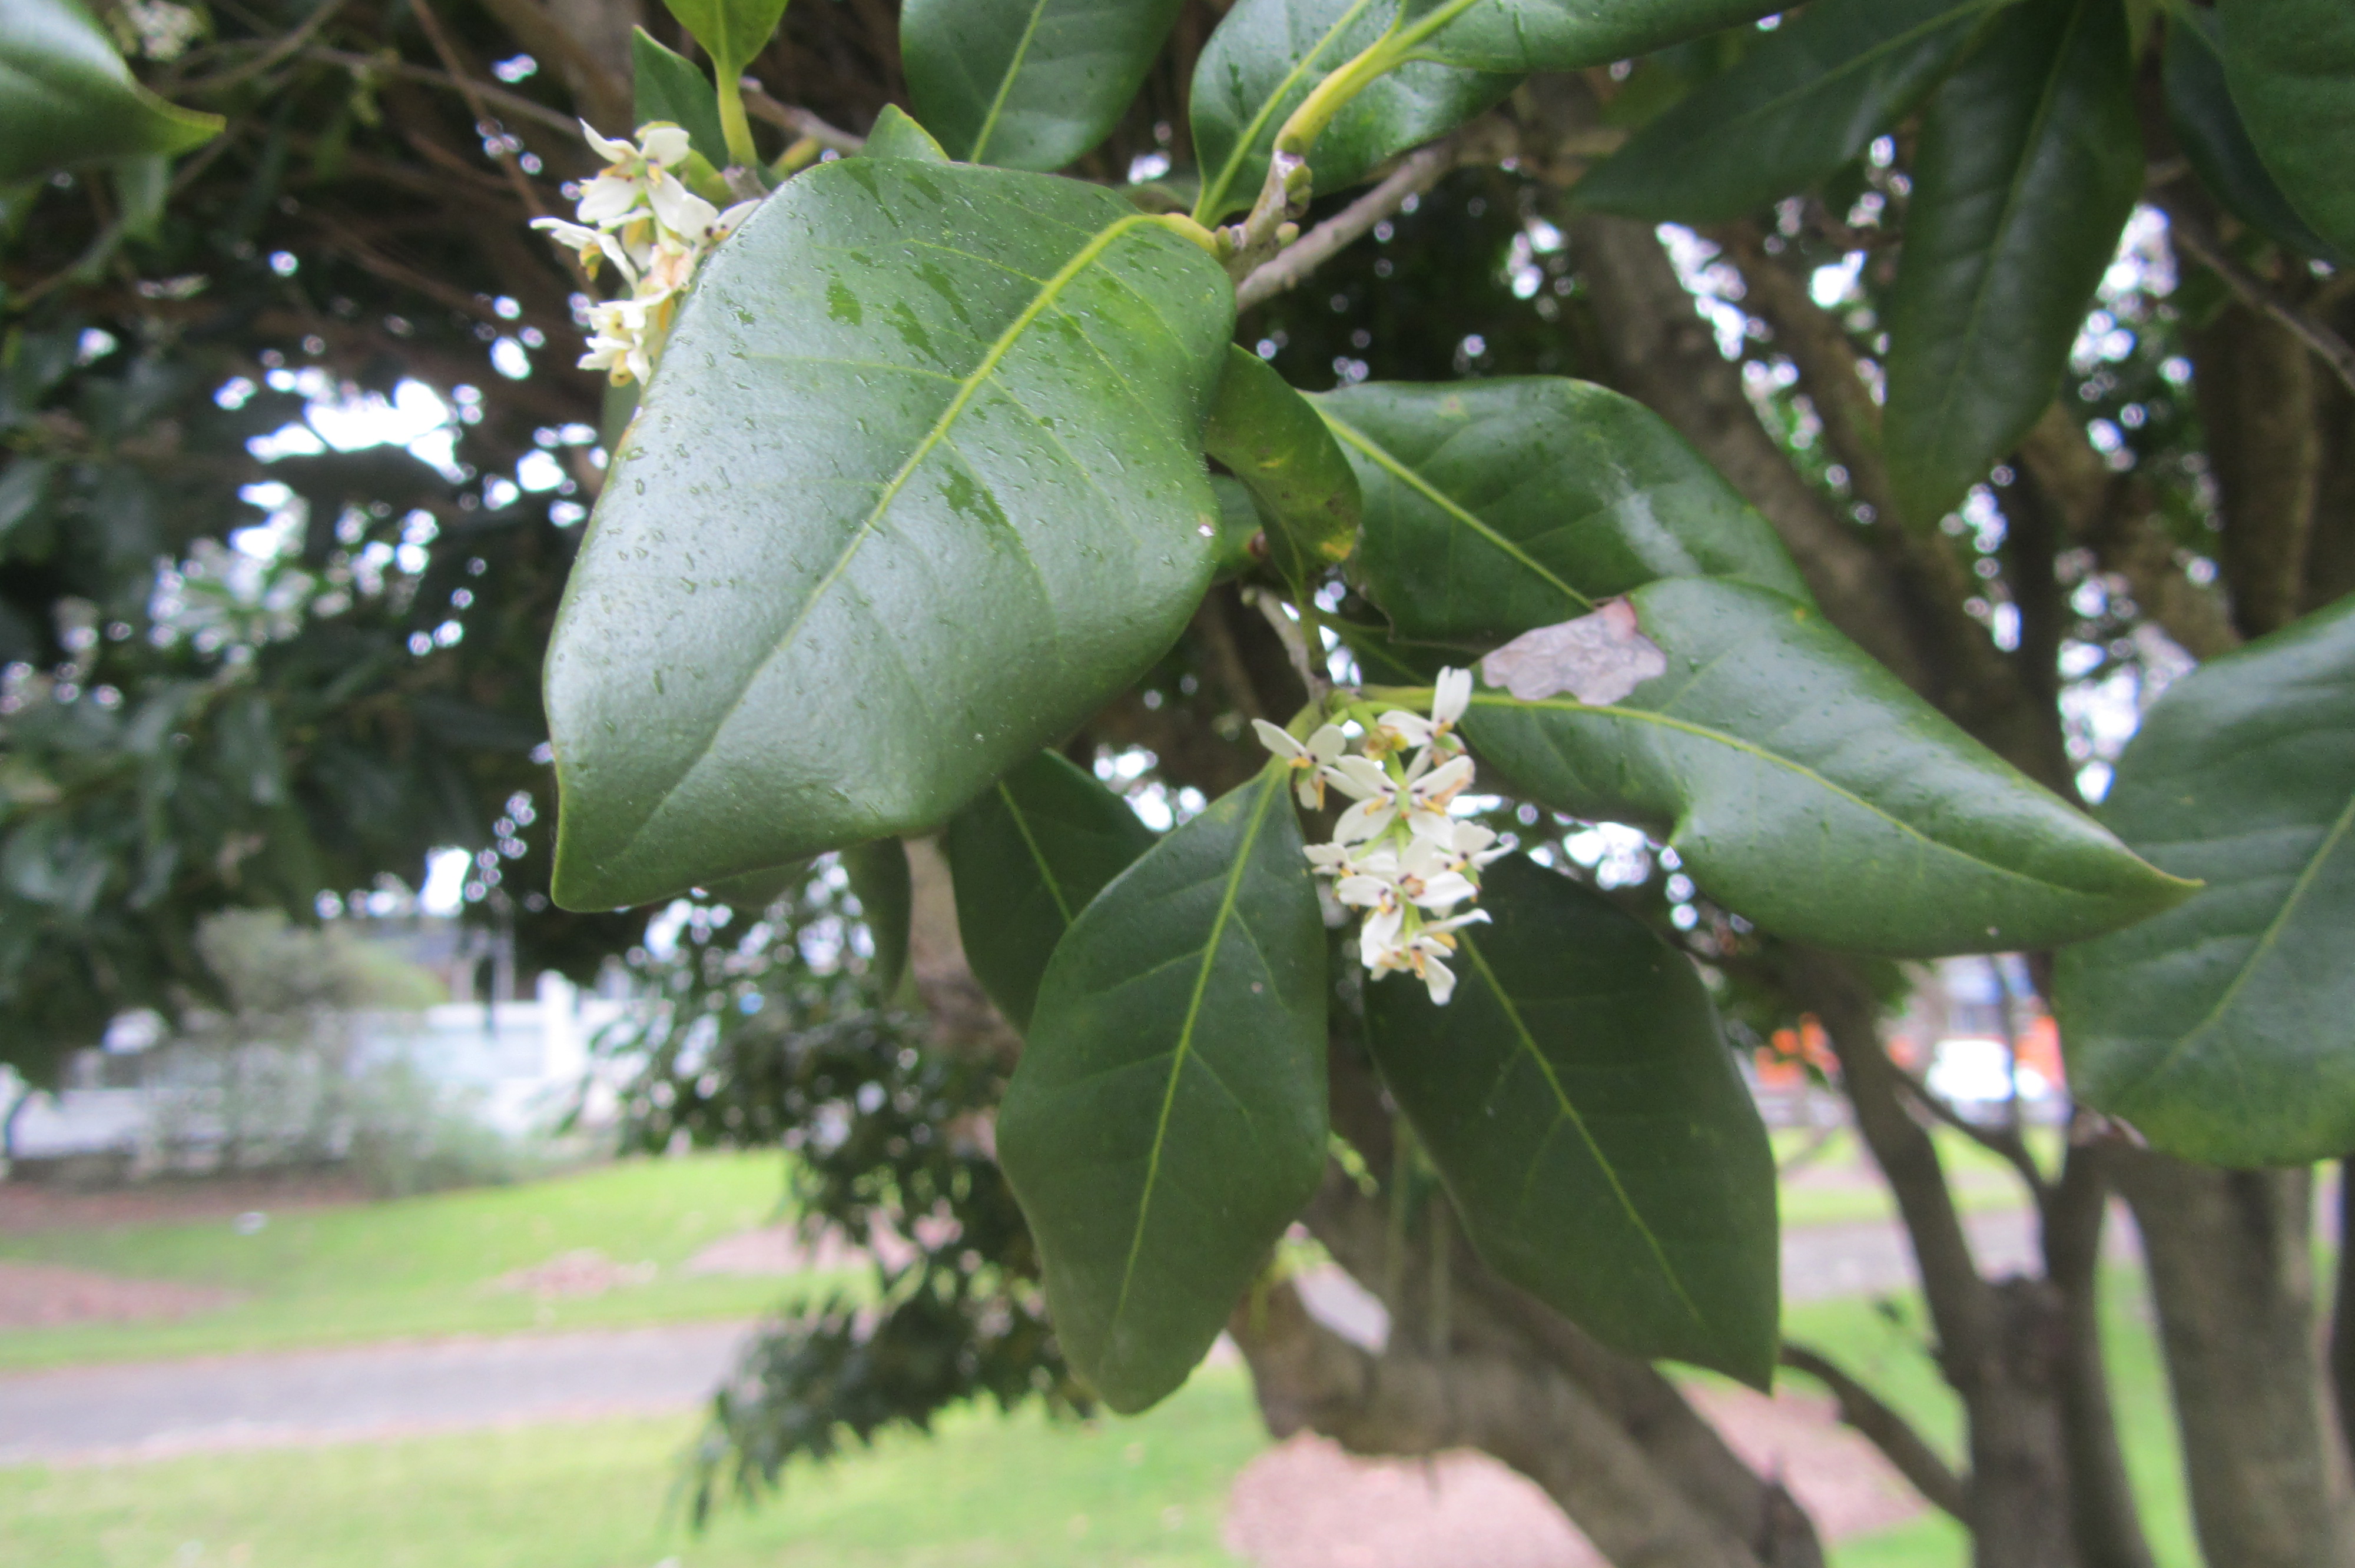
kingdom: Plantae
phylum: Tracheophyta
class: Magnoliopsida
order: Lamiales
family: Oleaceae
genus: Picconia
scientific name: Picconia excelsa
